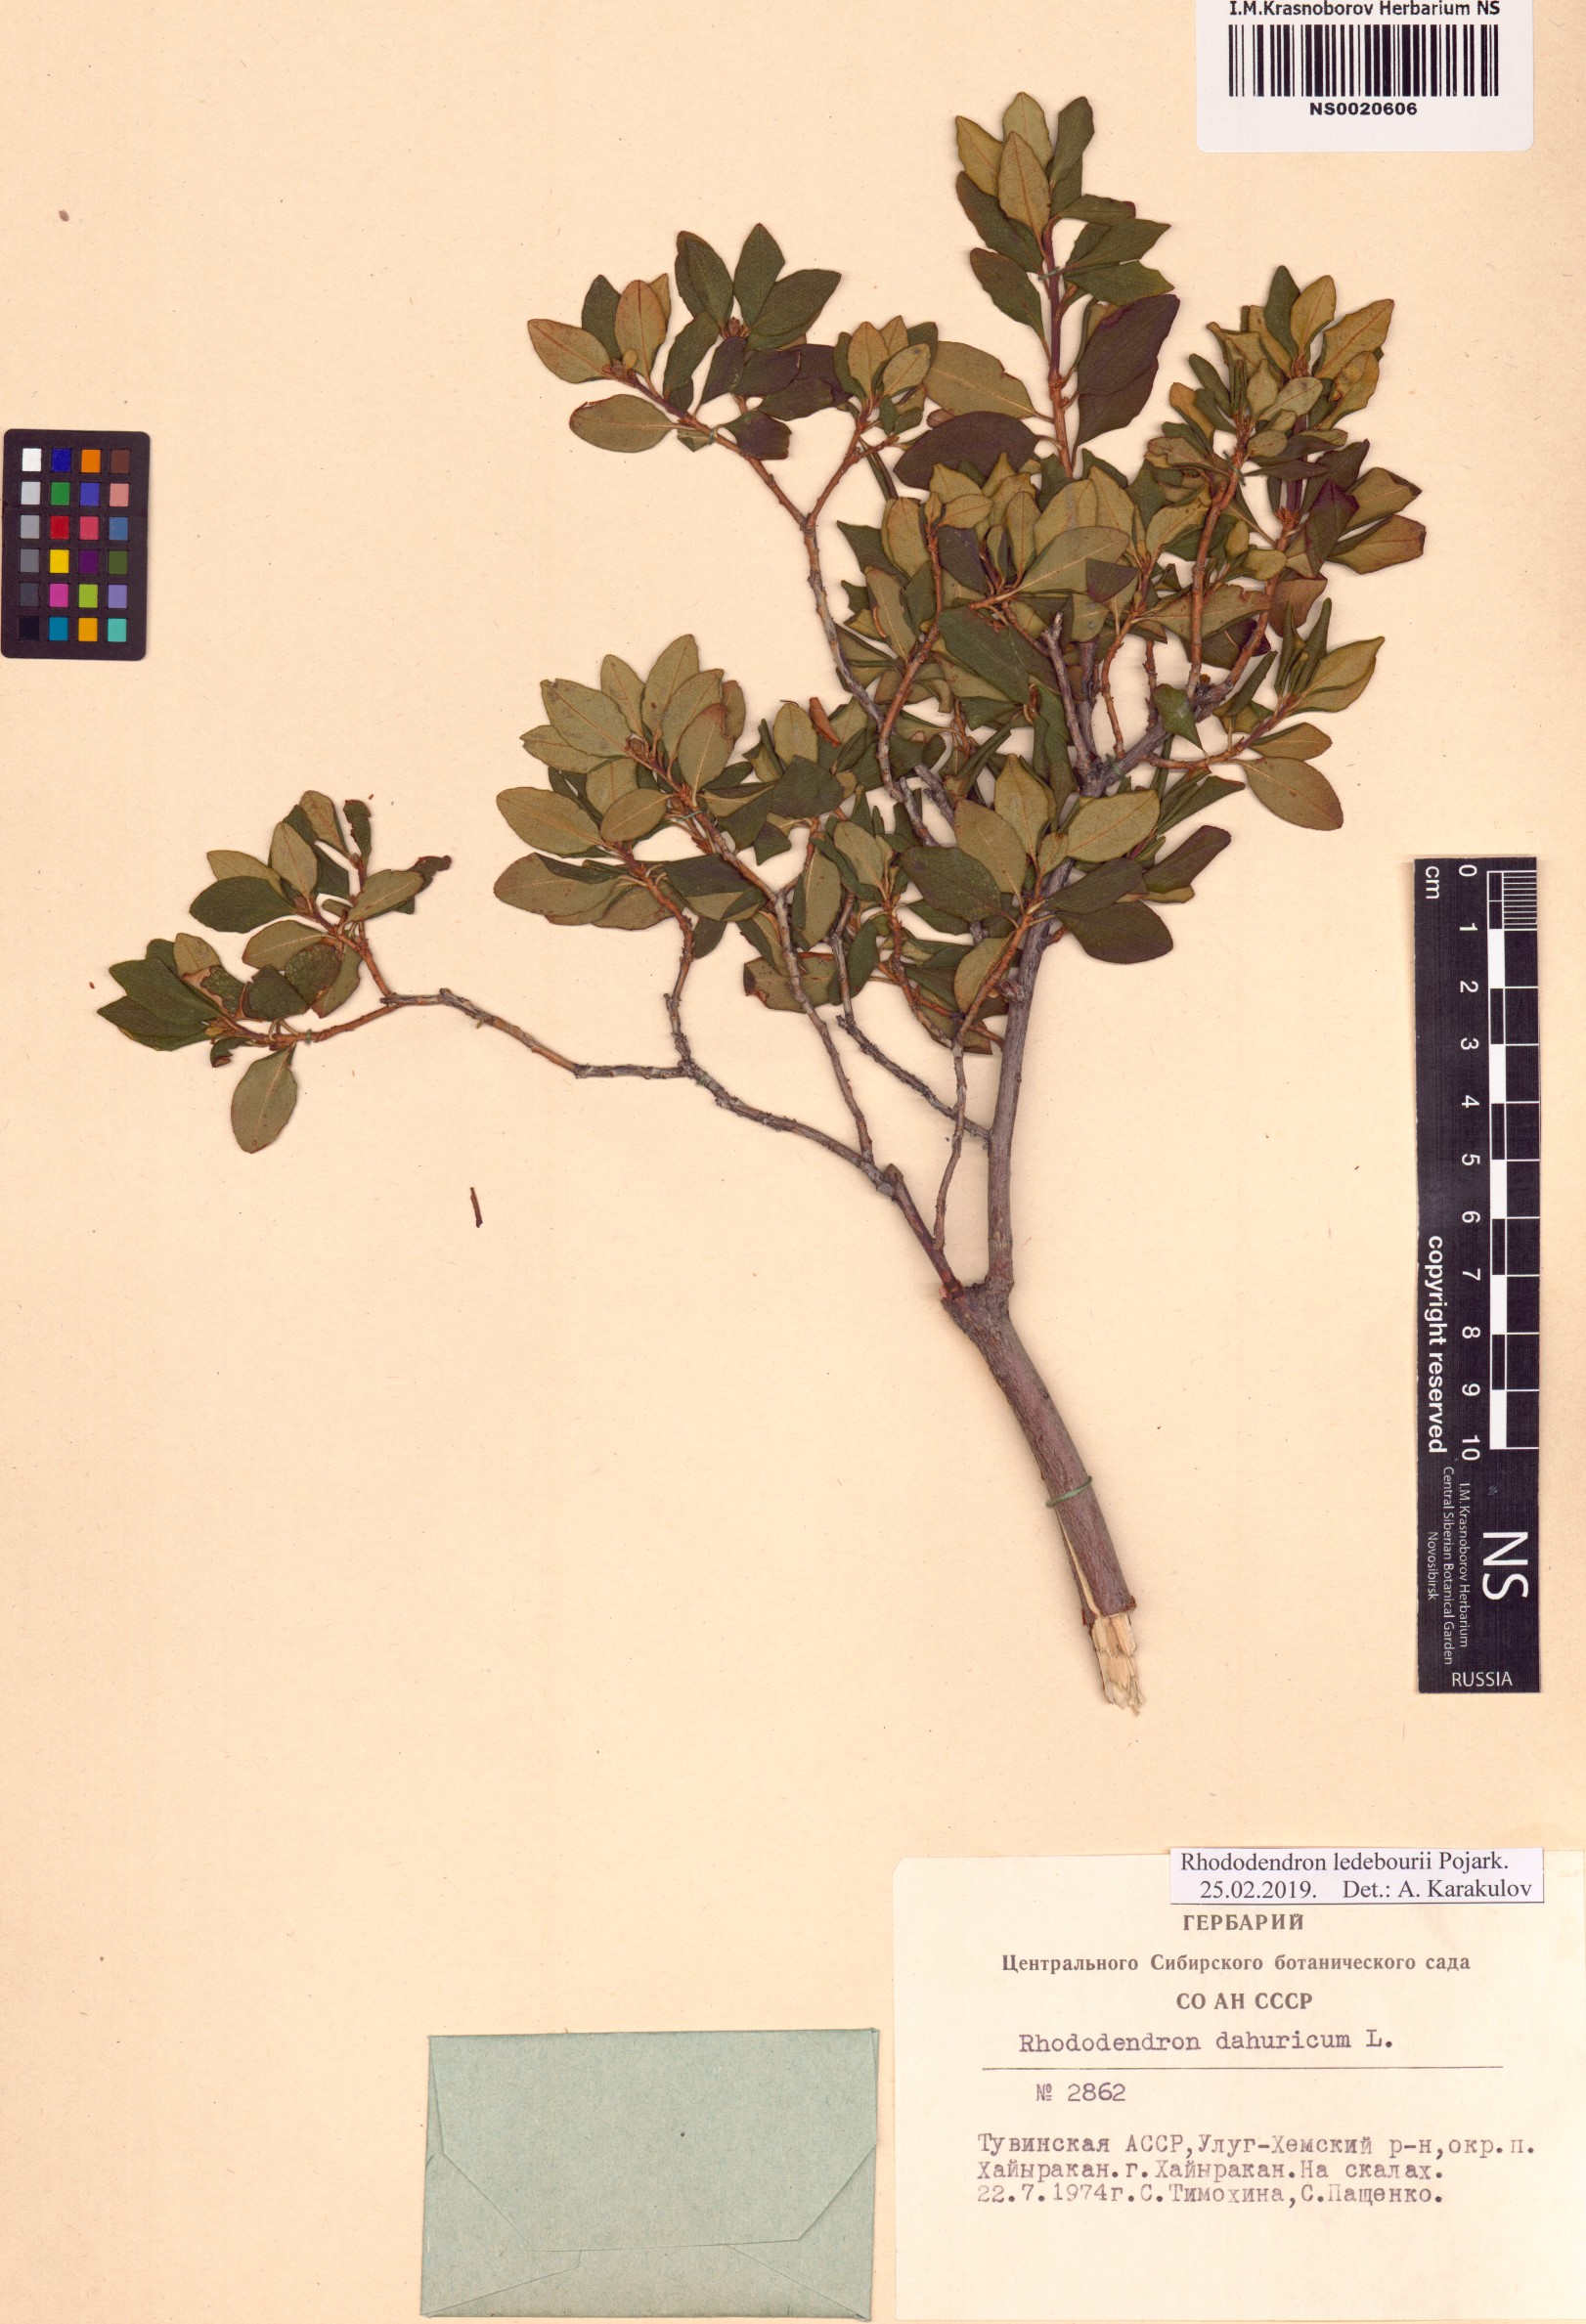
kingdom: Plantae
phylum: Tracheophyta
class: Magnoliopsida
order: Ericales
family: Ericaceae
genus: Rhododendron
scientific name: Rhododendron dauricum
